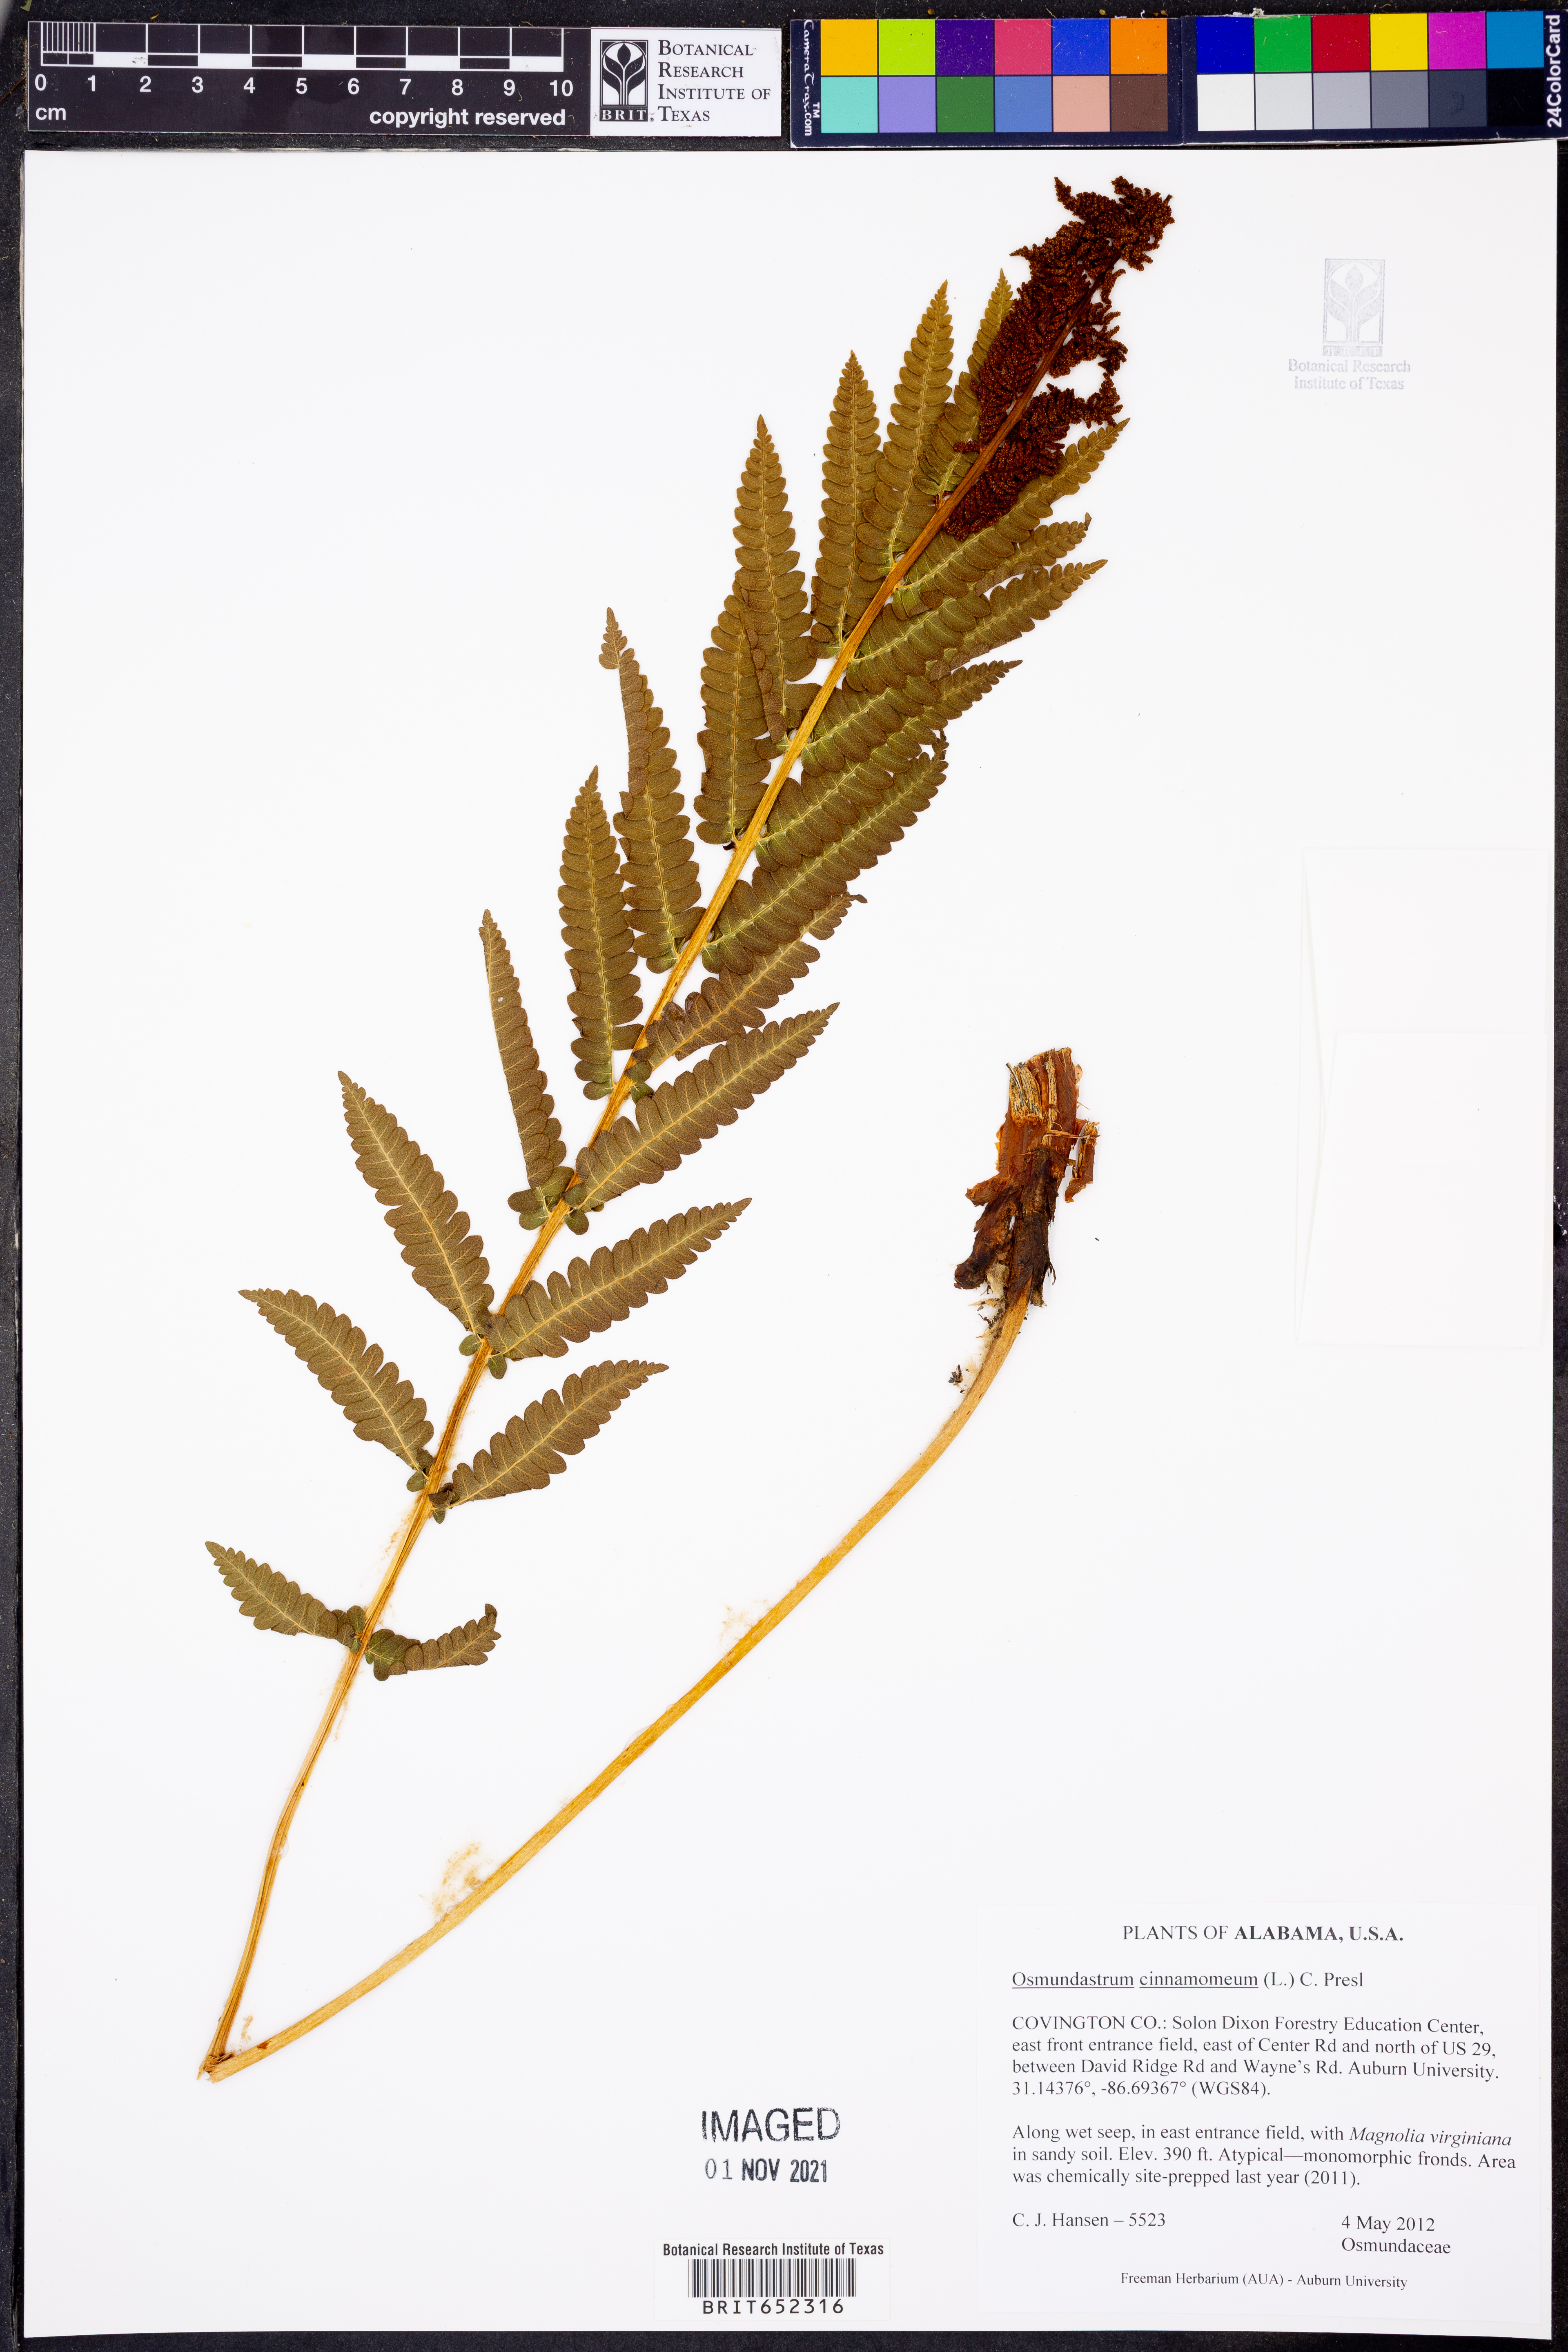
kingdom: Plantae
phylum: Tracheophyta
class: Polypodiopsida
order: Osmundales
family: Osmundaceae
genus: Osmundastrum
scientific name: Osmundastrum cinnamomeum
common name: Cinnamon fern
